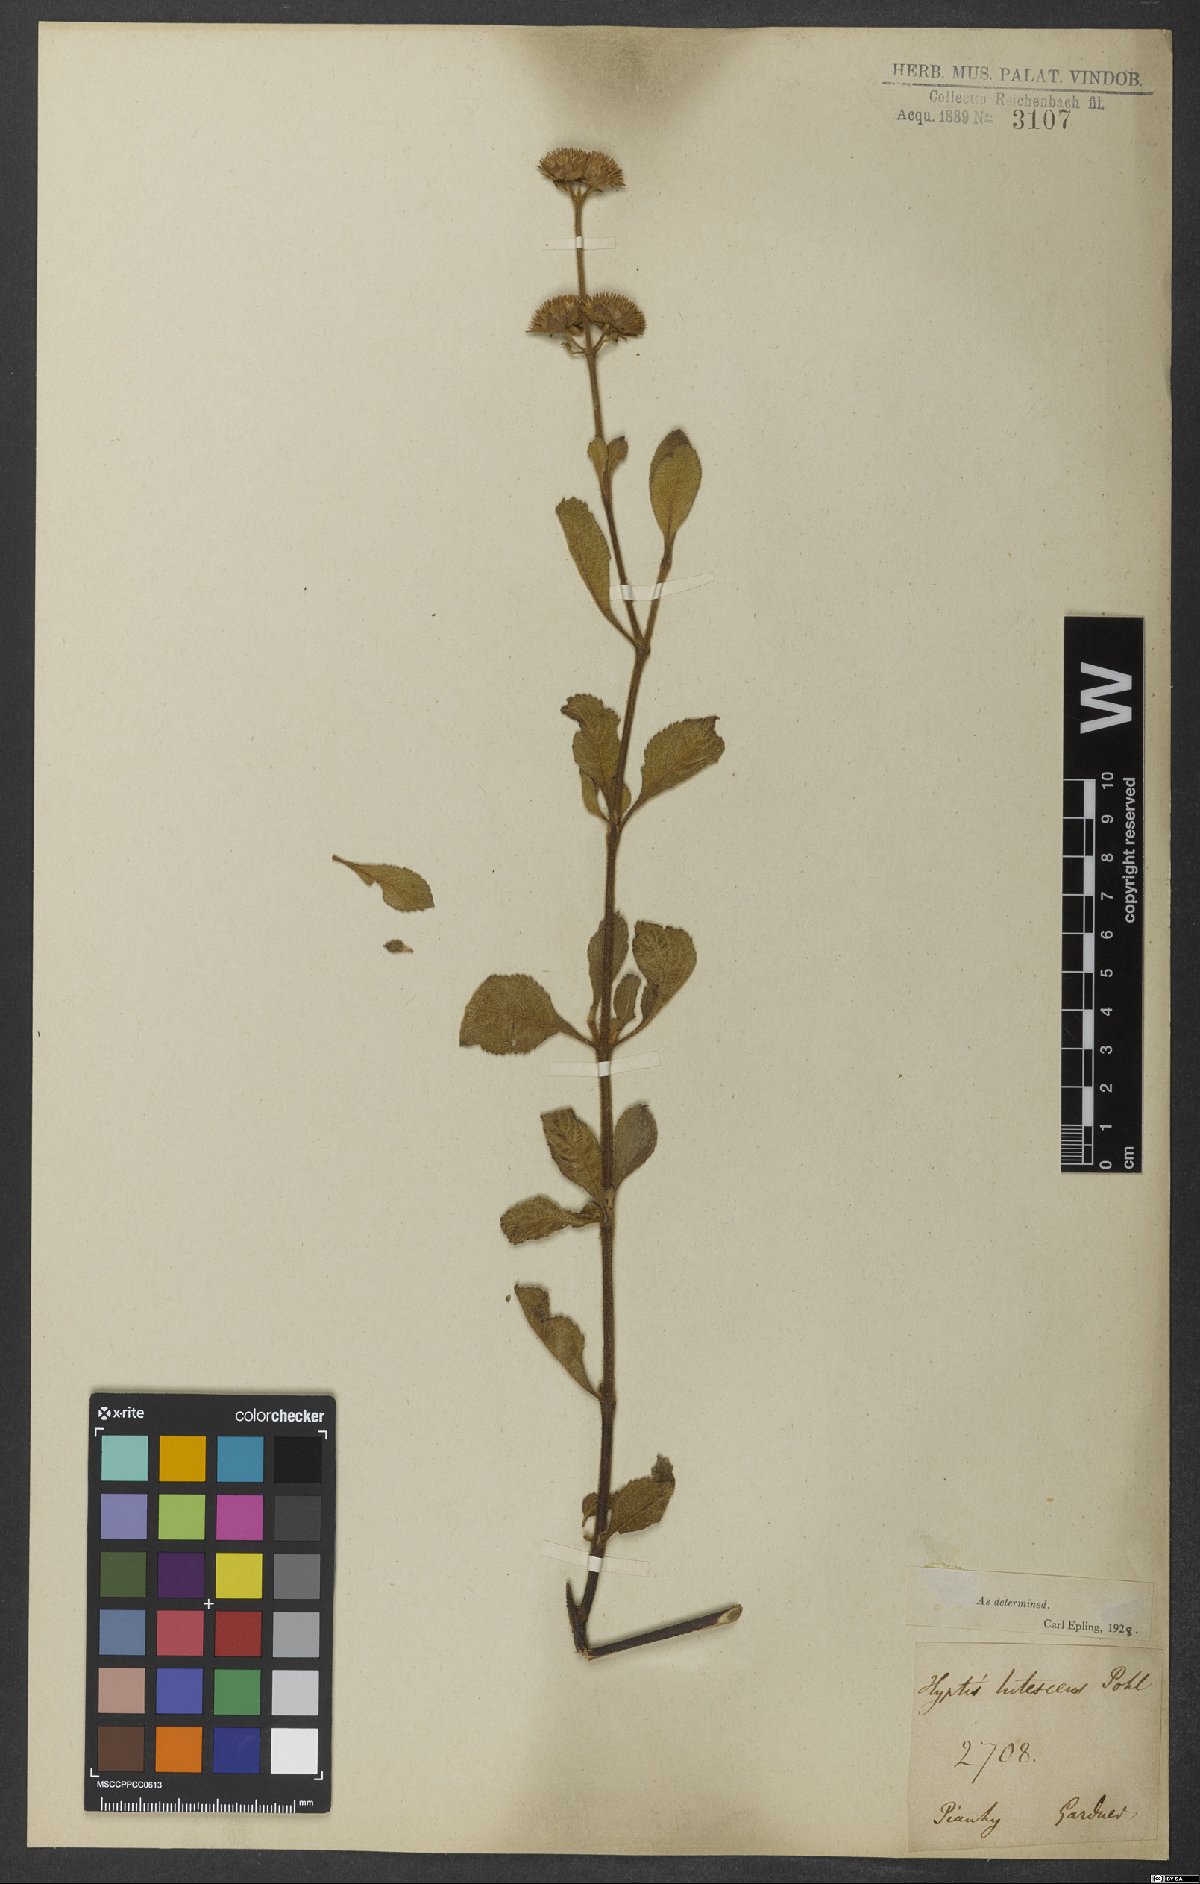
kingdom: Plantae
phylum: Tracheophyta
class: Magnoliopsida
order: Lamiales
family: Lamiaceae
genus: Hyptis
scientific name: Hyptis lutescens
